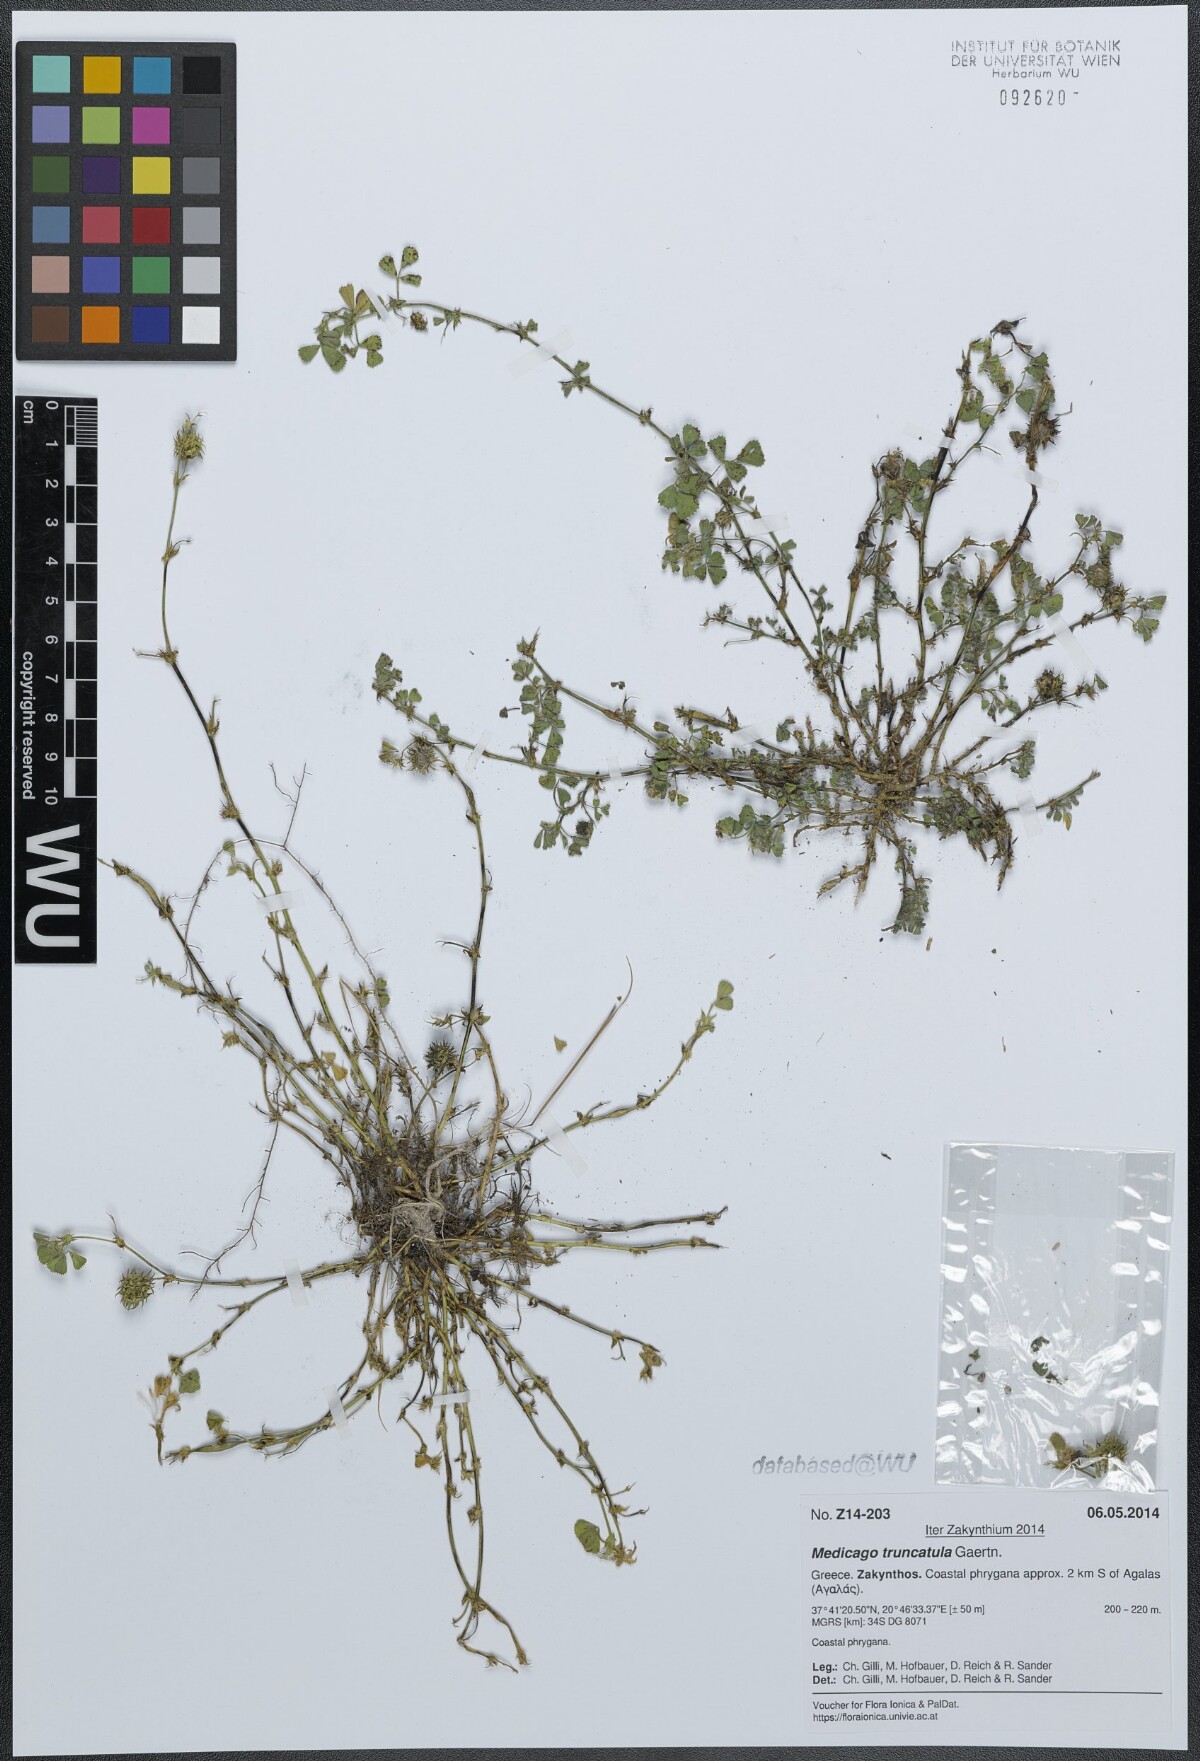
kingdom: Plantae
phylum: Tracheophyta
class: Magnoliopsida
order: Fabales
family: Fabaceae
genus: Medicago
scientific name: Medicago truncatula
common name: Strong-spined medick
